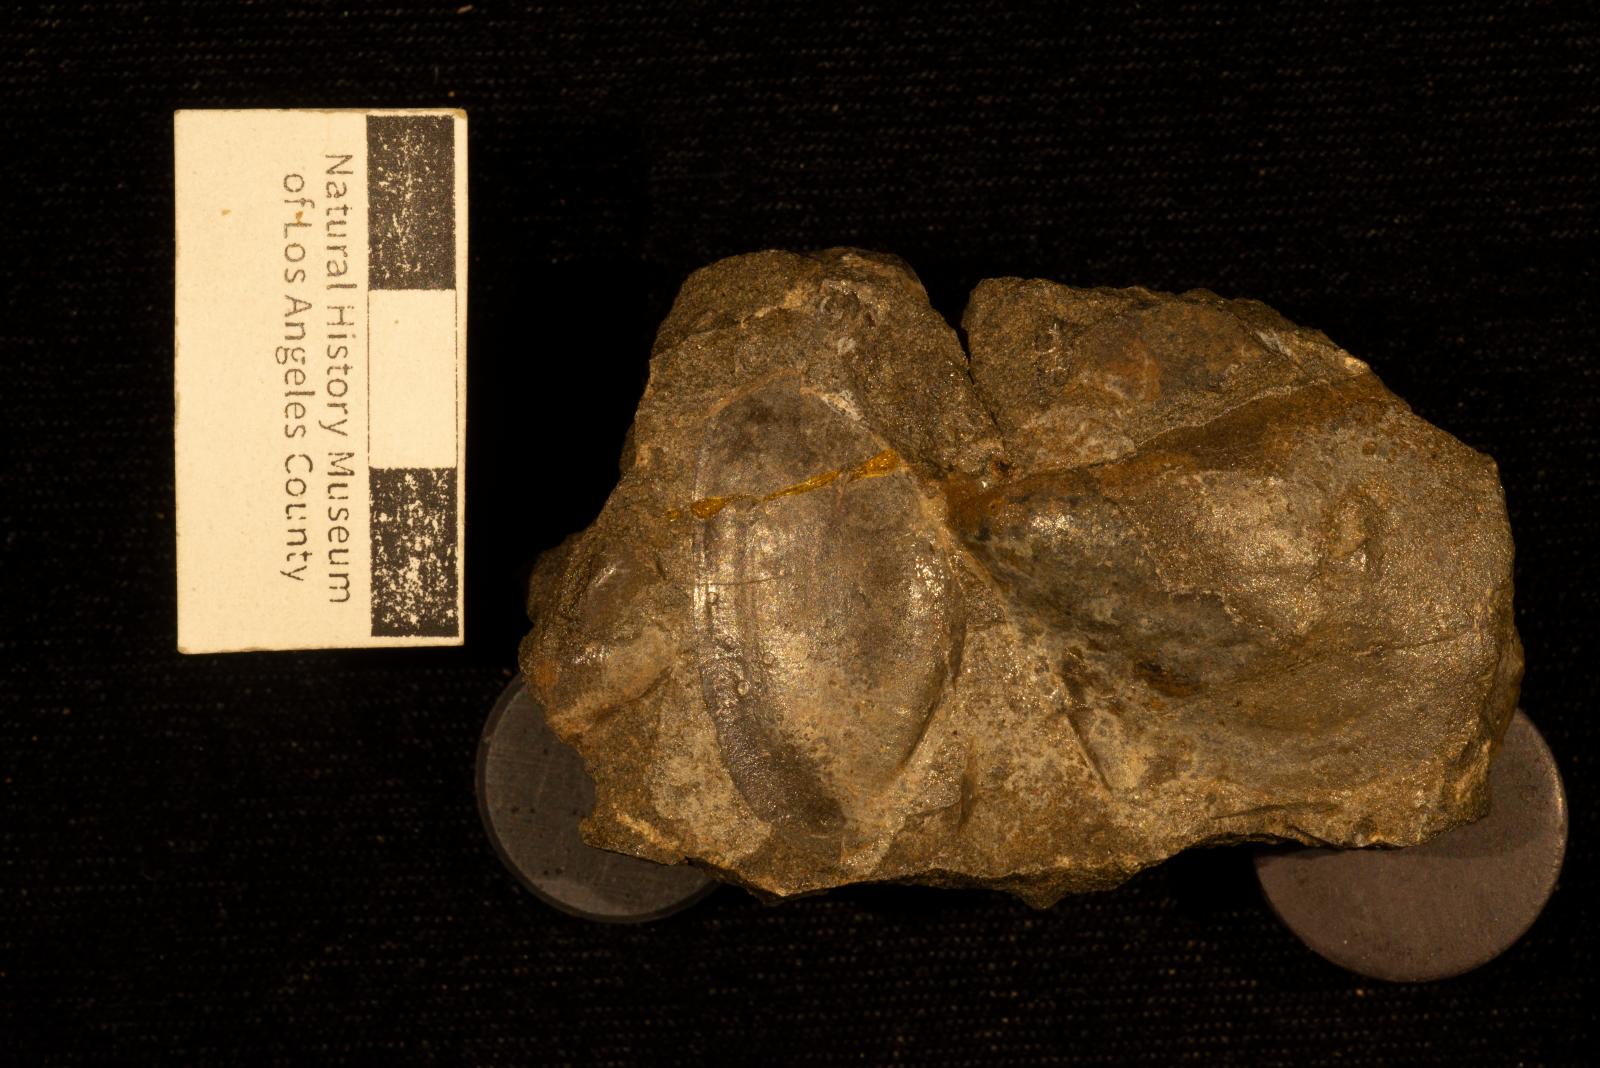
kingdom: Animalia
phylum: Mollusca
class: Bivalvia
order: Ostreida
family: Pteriidae
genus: Pteria
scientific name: Pteria pellucida
